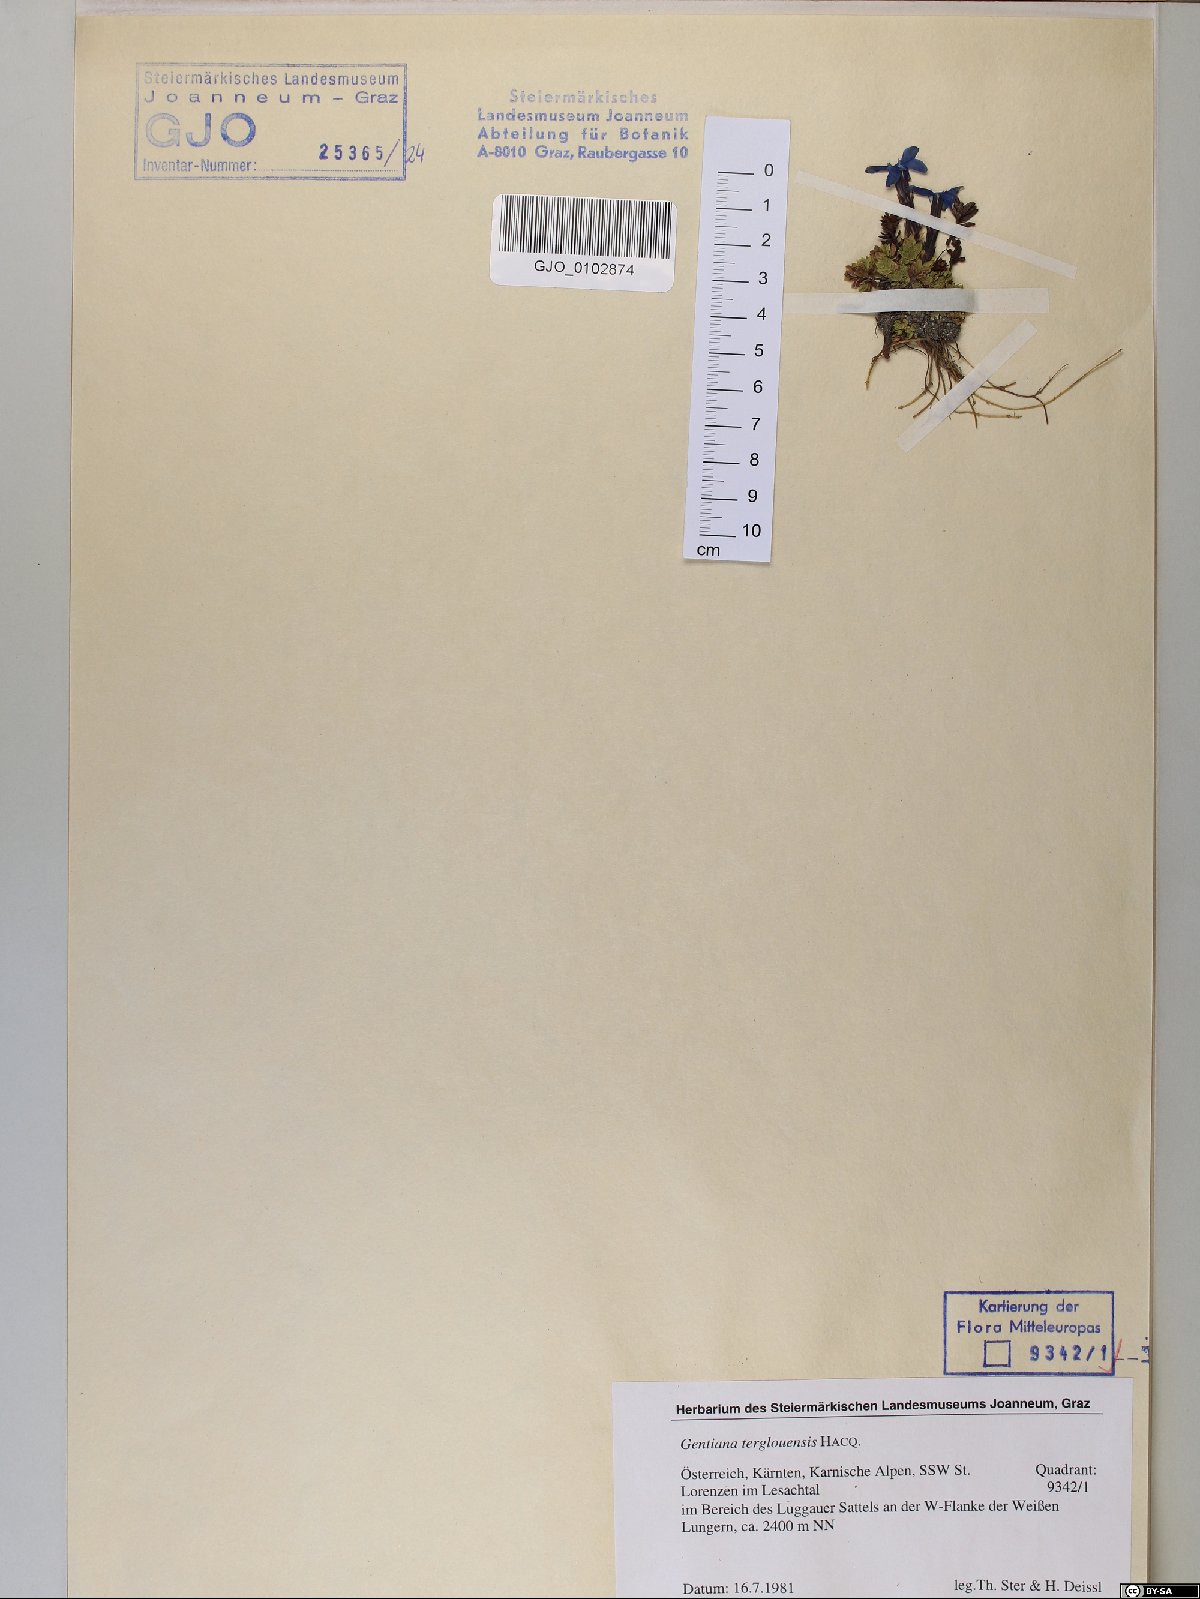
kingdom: Plantae
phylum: Tracheophyta
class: Magnoliopsida
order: Gentianales
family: Gentianaceae
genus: Gentiana
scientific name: Gentiana terglouensis
